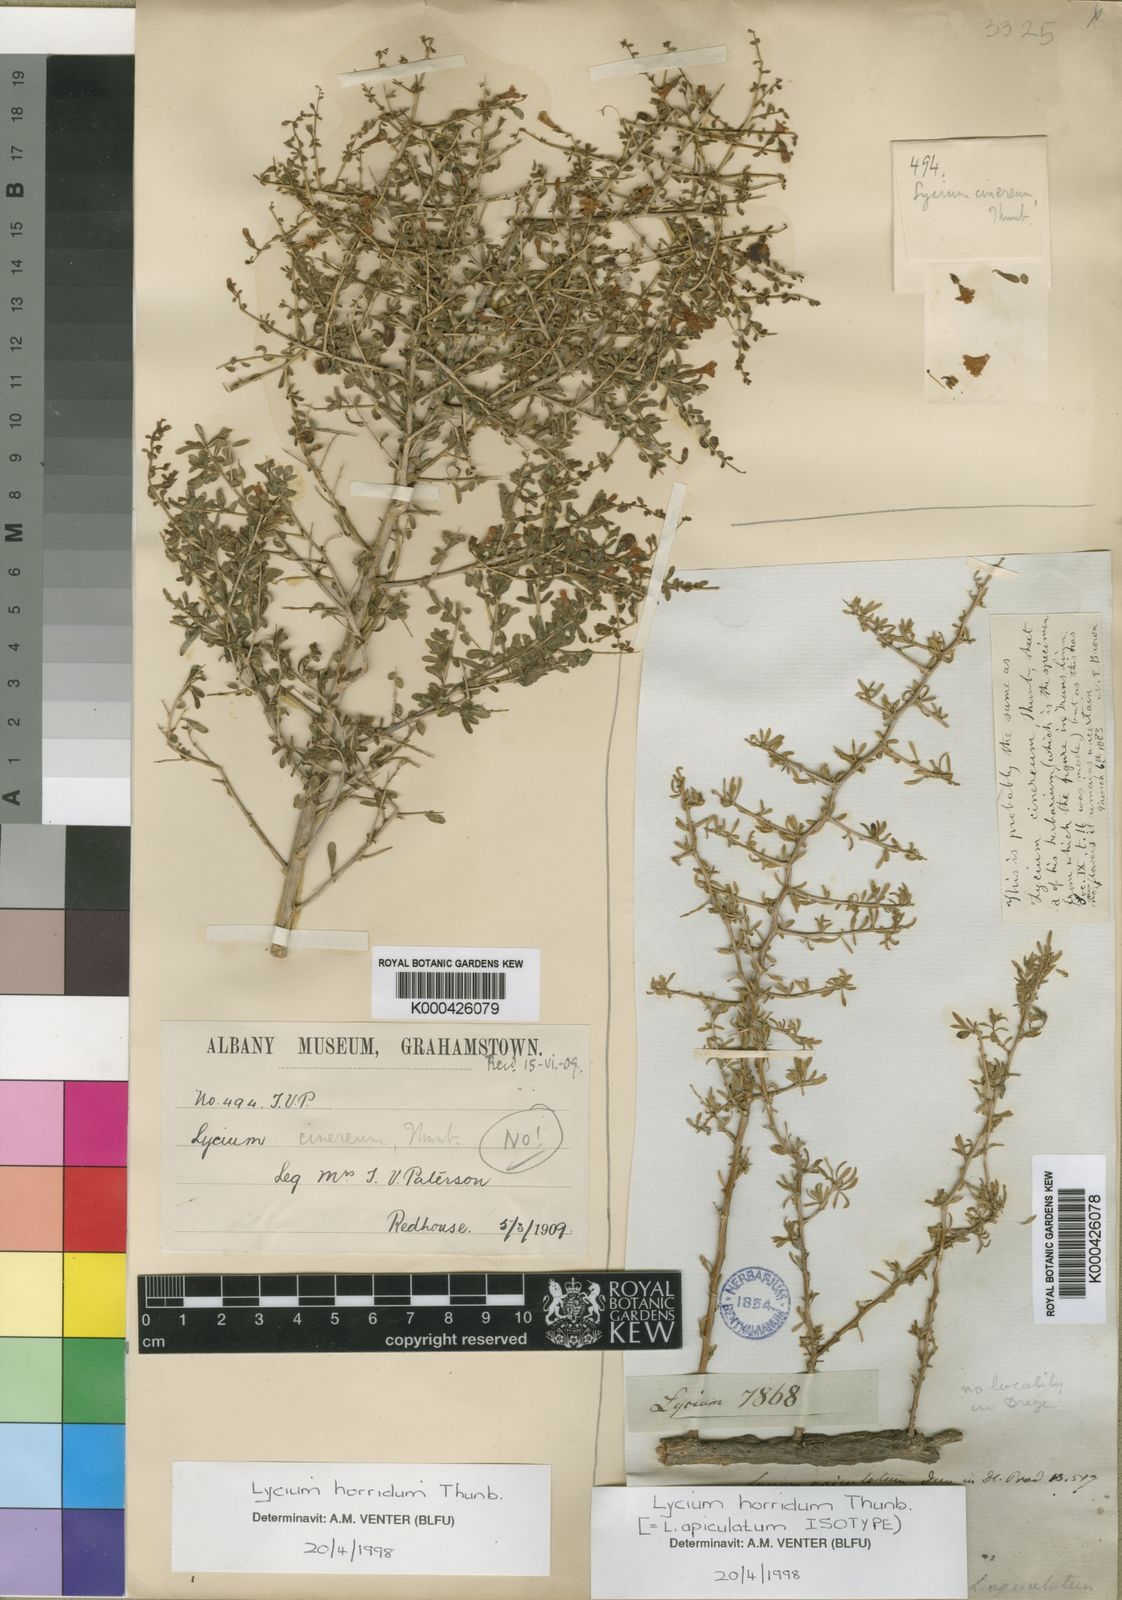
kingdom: Plantae
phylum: Tracheophyta
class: Magnoliopsida
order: Solanales
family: Solanaceae
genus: Lycium
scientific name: Lycium horridum
